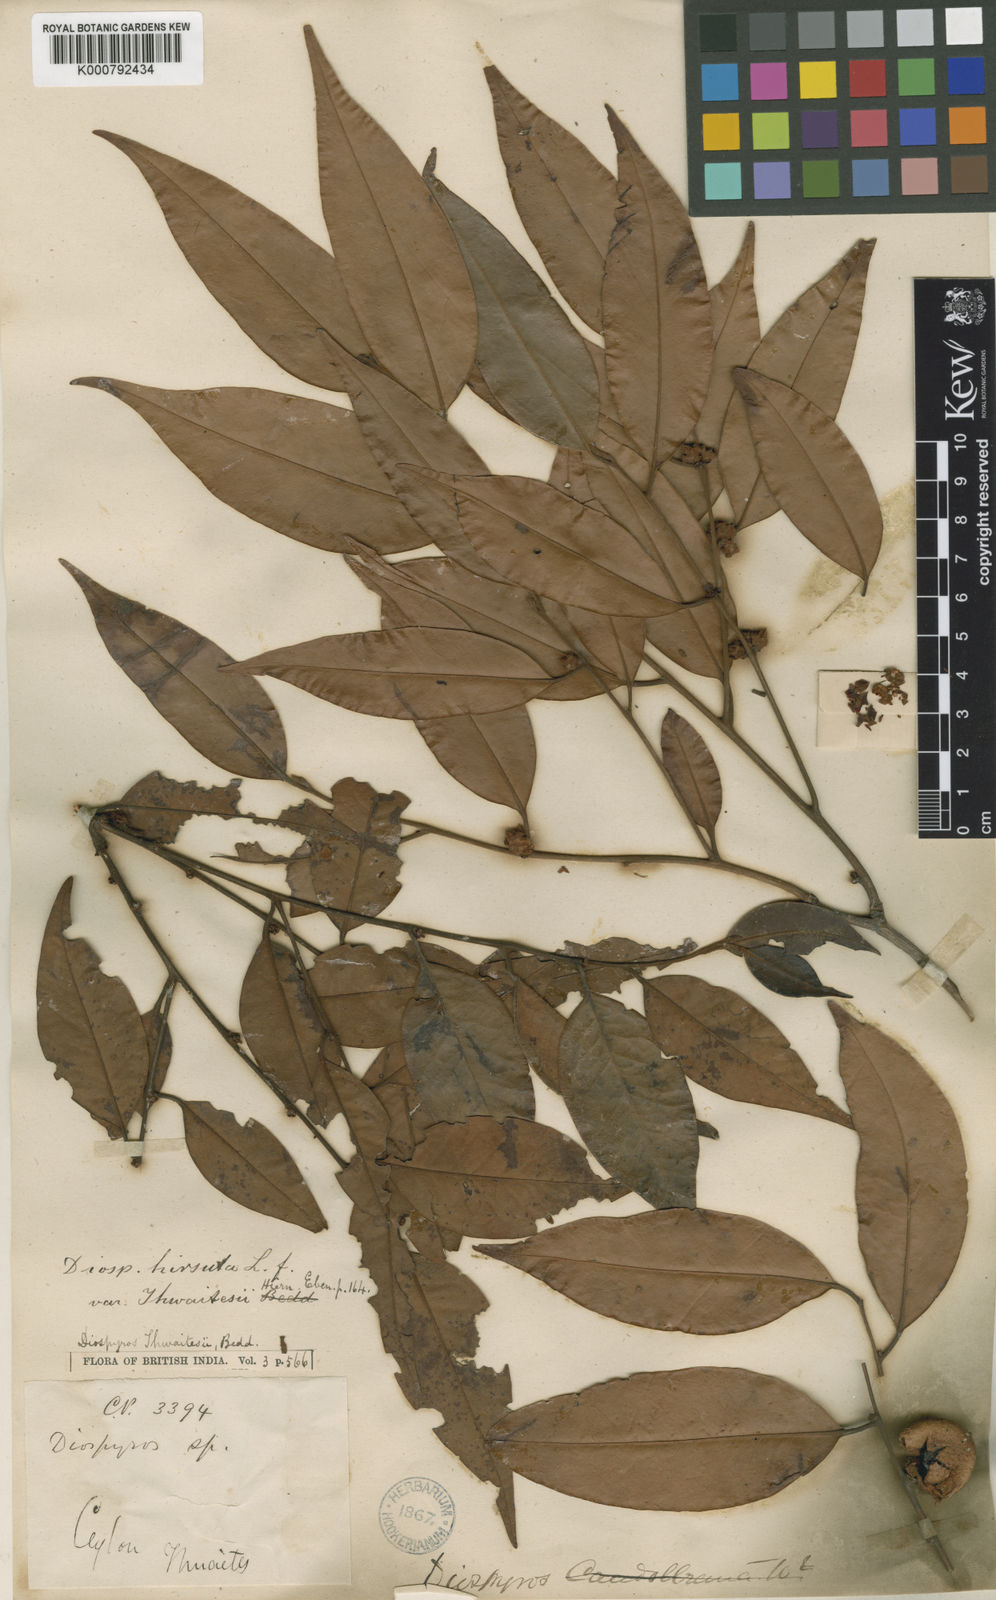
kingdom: Plantae
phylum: Tracheophyta
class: Magnoliopsida
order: Ericales
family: Ebenaceae
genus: Diospyros
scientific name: Diospyros thwaitesii
